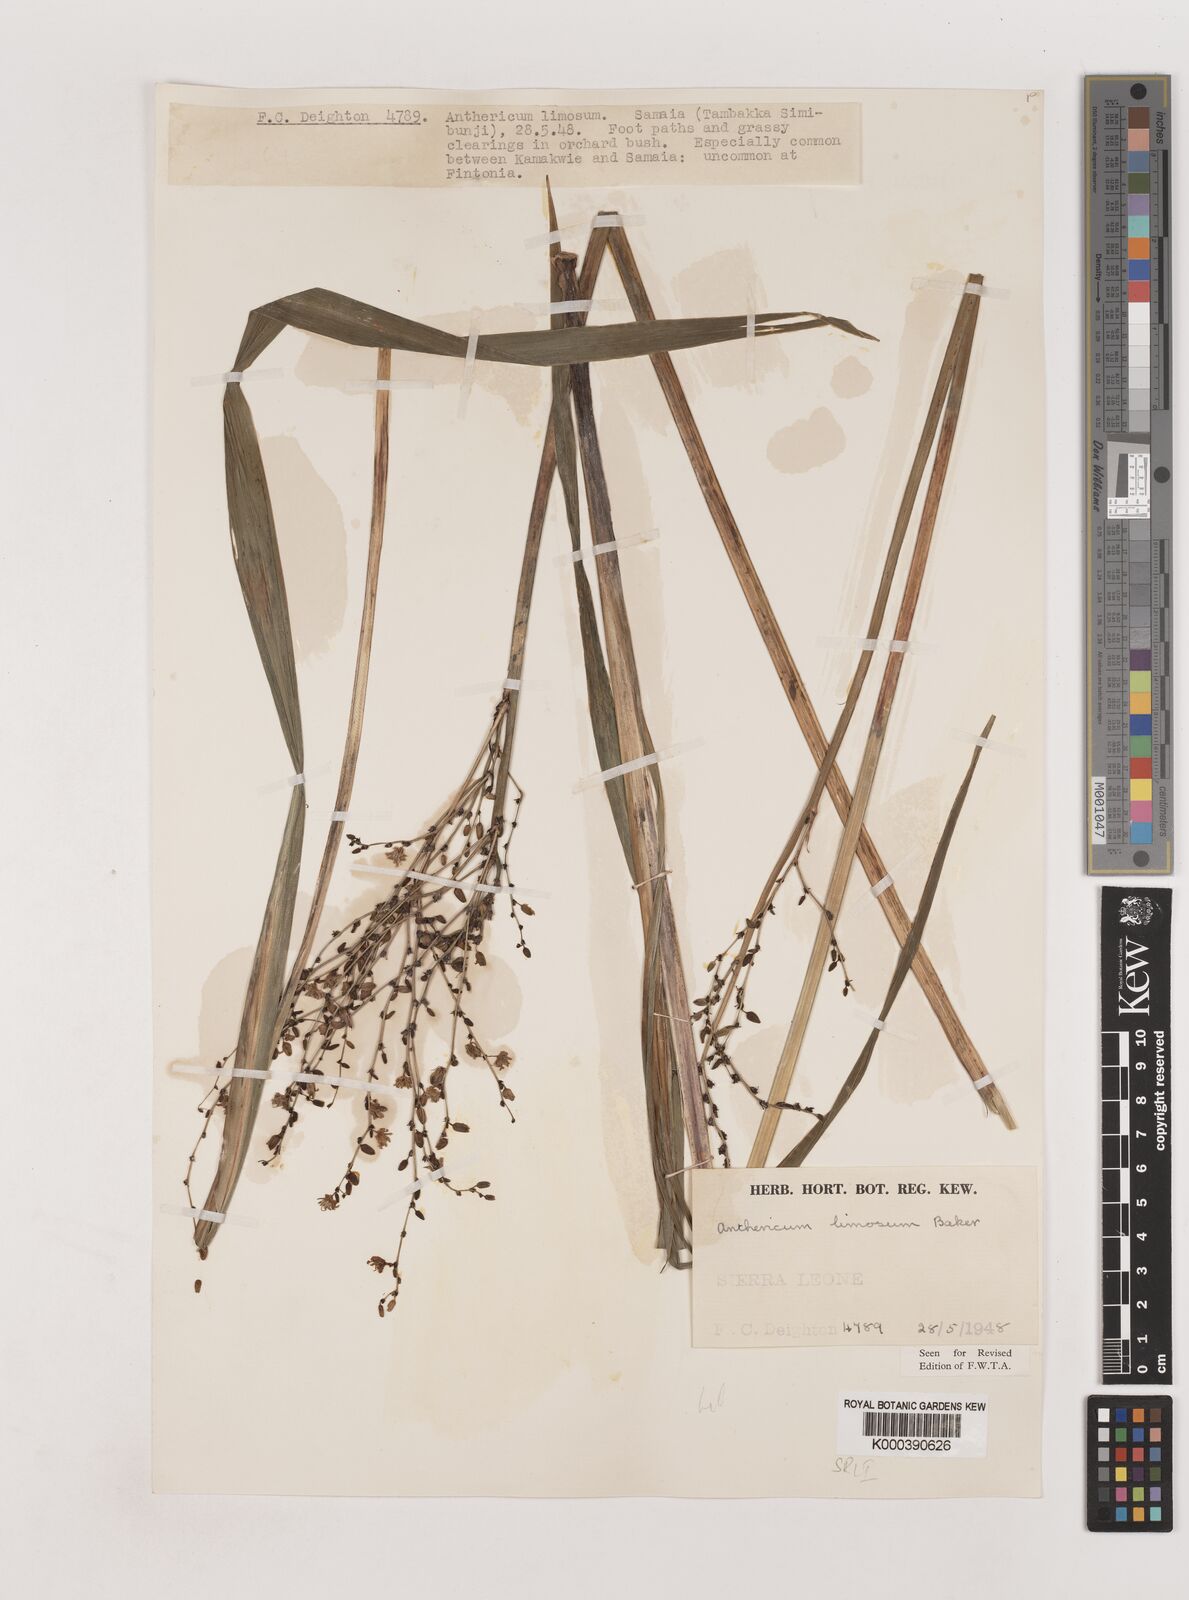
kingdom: Plantae
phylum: Tracheophyta
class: Liliopsida
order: Asparagales
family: Asparagaceae
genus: Chlorophytum
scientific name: Chlorophytum limosum
